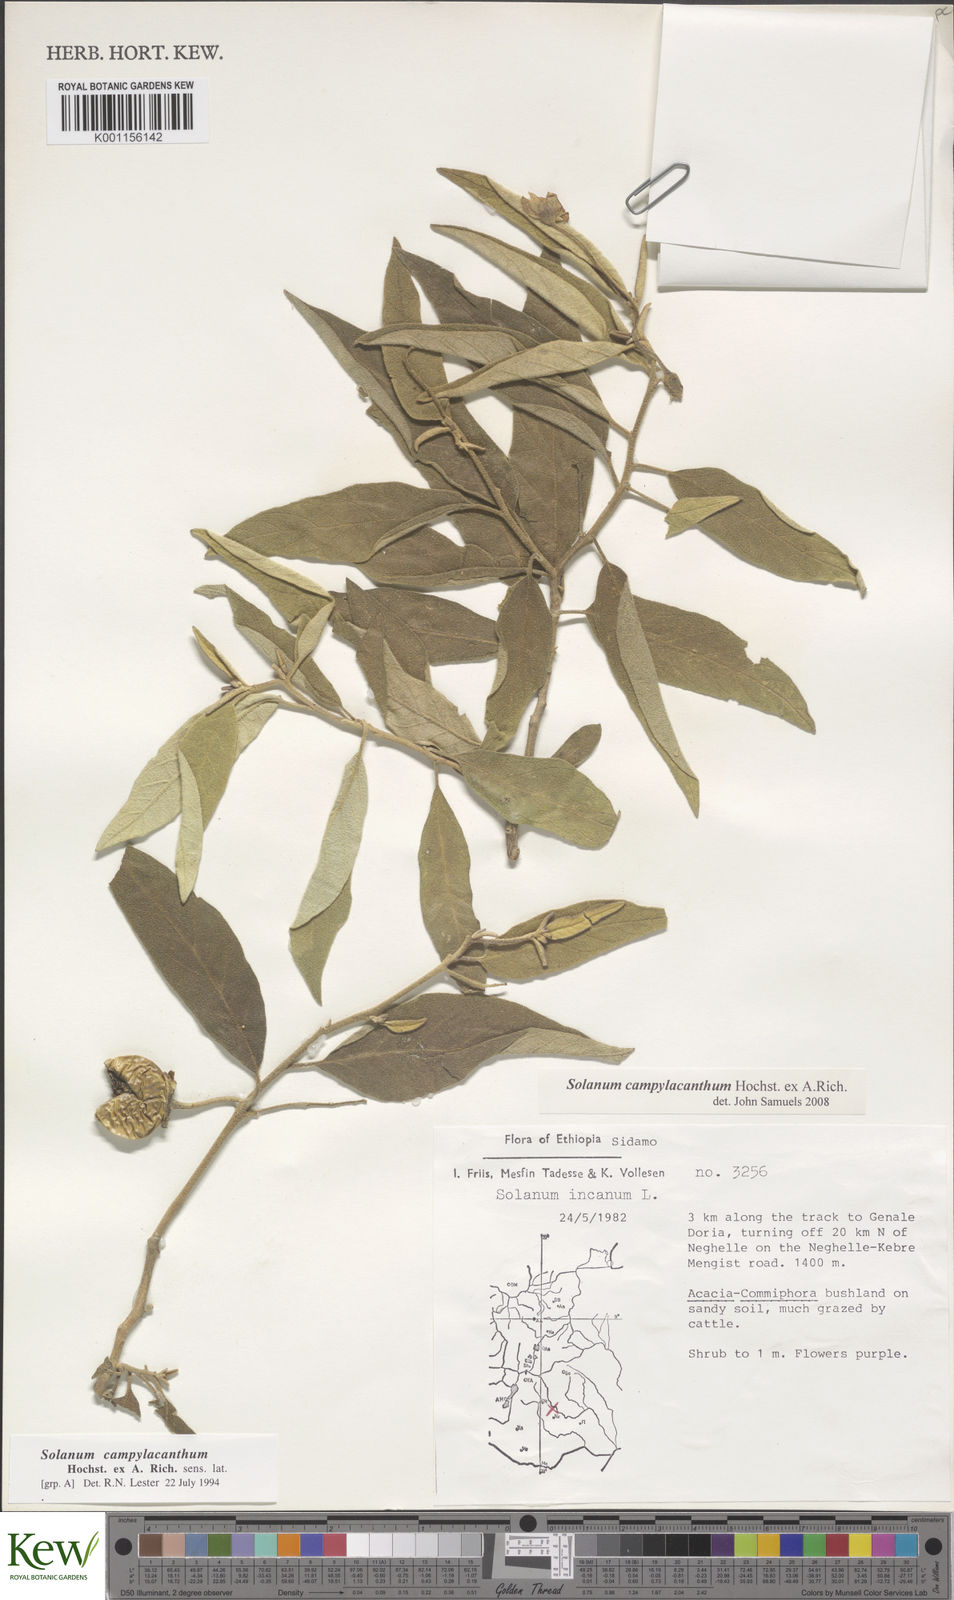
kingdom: Plantae
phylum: Tracheophyta
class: Magnoliopsida
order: Solanales
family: Solanaceae
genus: Solanum
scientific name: Solanum campylacanthum
